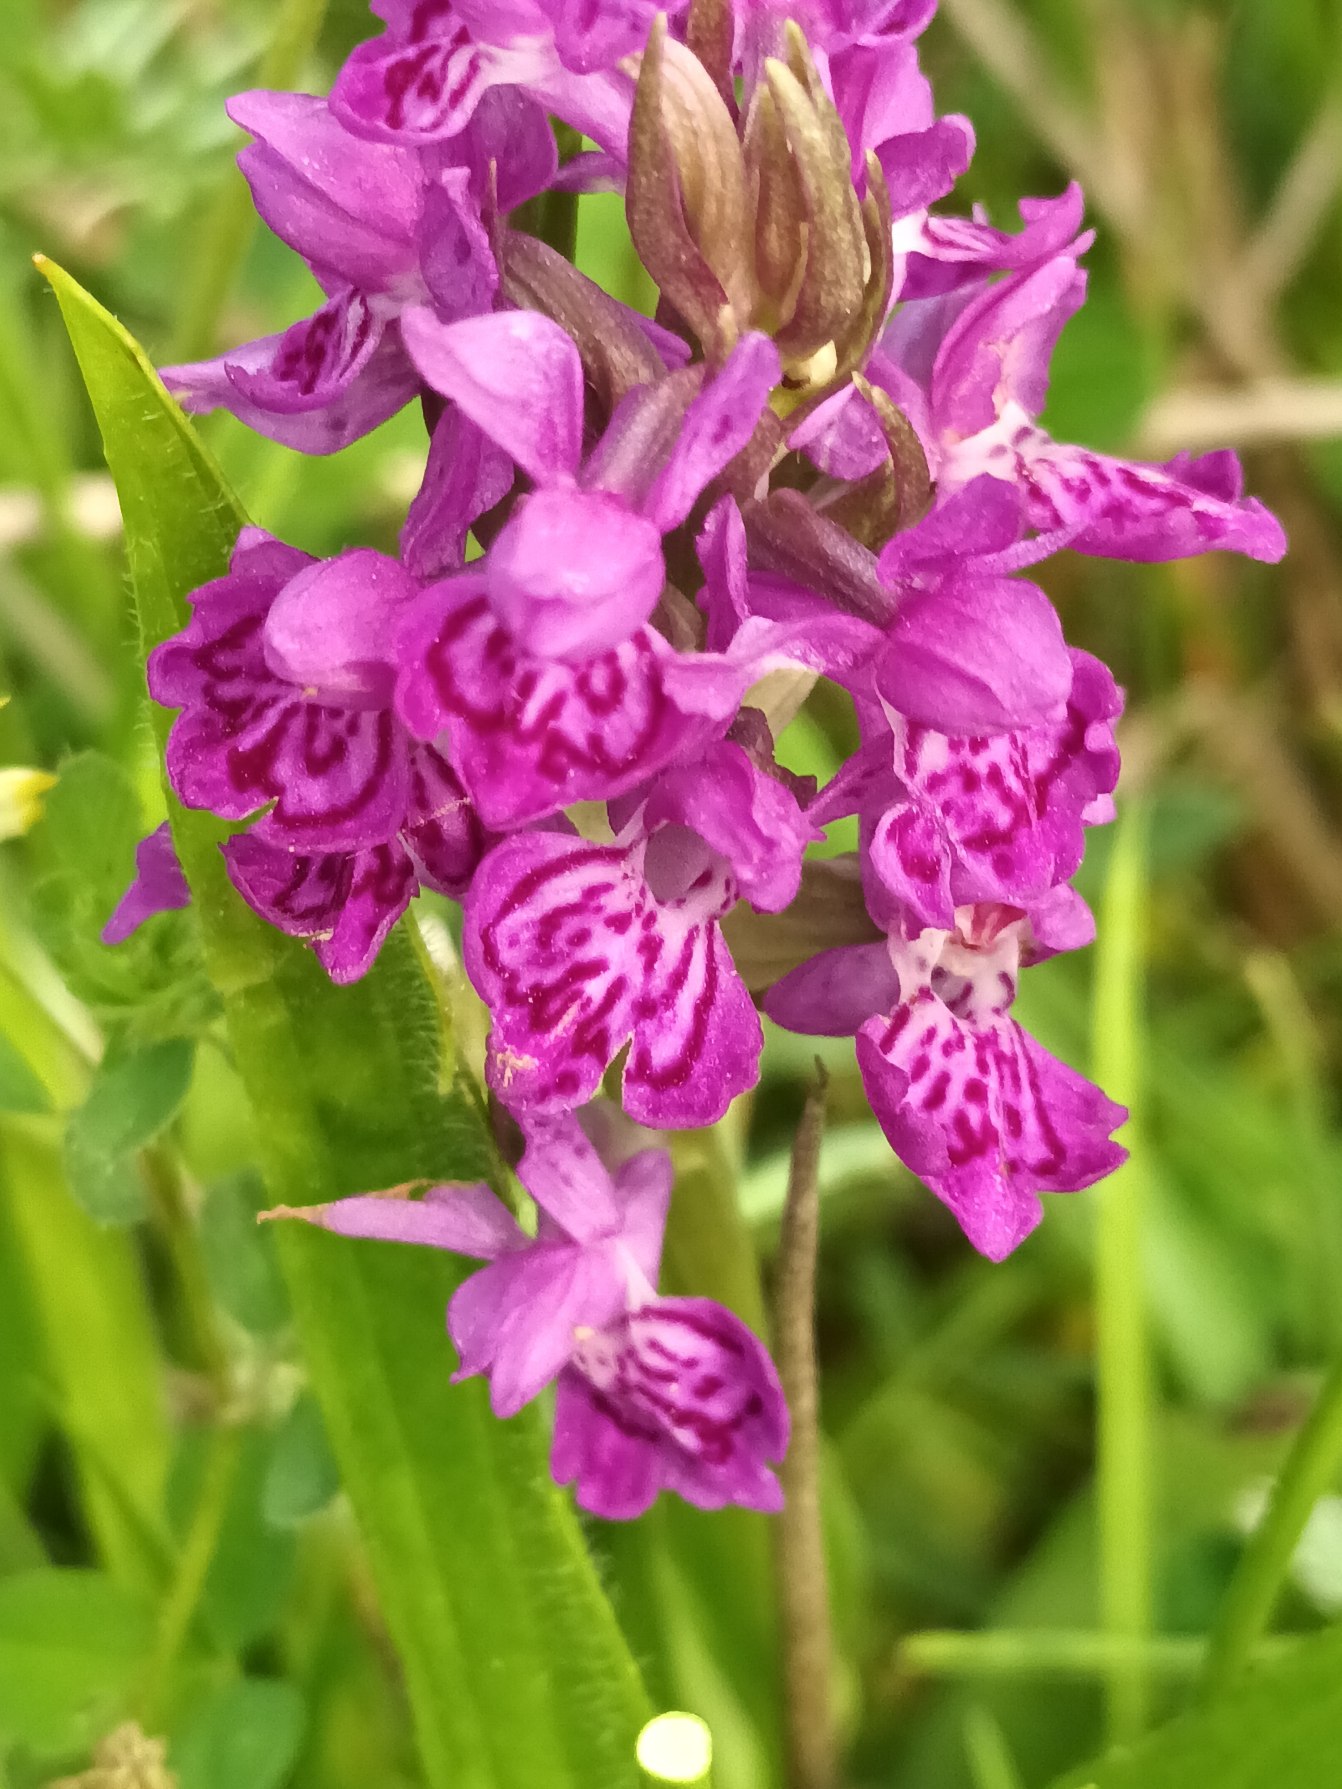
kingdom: Plantae
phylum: Tracheophyta
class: Liliopsida
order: Asparagales
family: Orchidaceae
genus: Dactylorhiza
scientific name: Dactylorhiza majalis
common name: Purpur-gøgeurt
